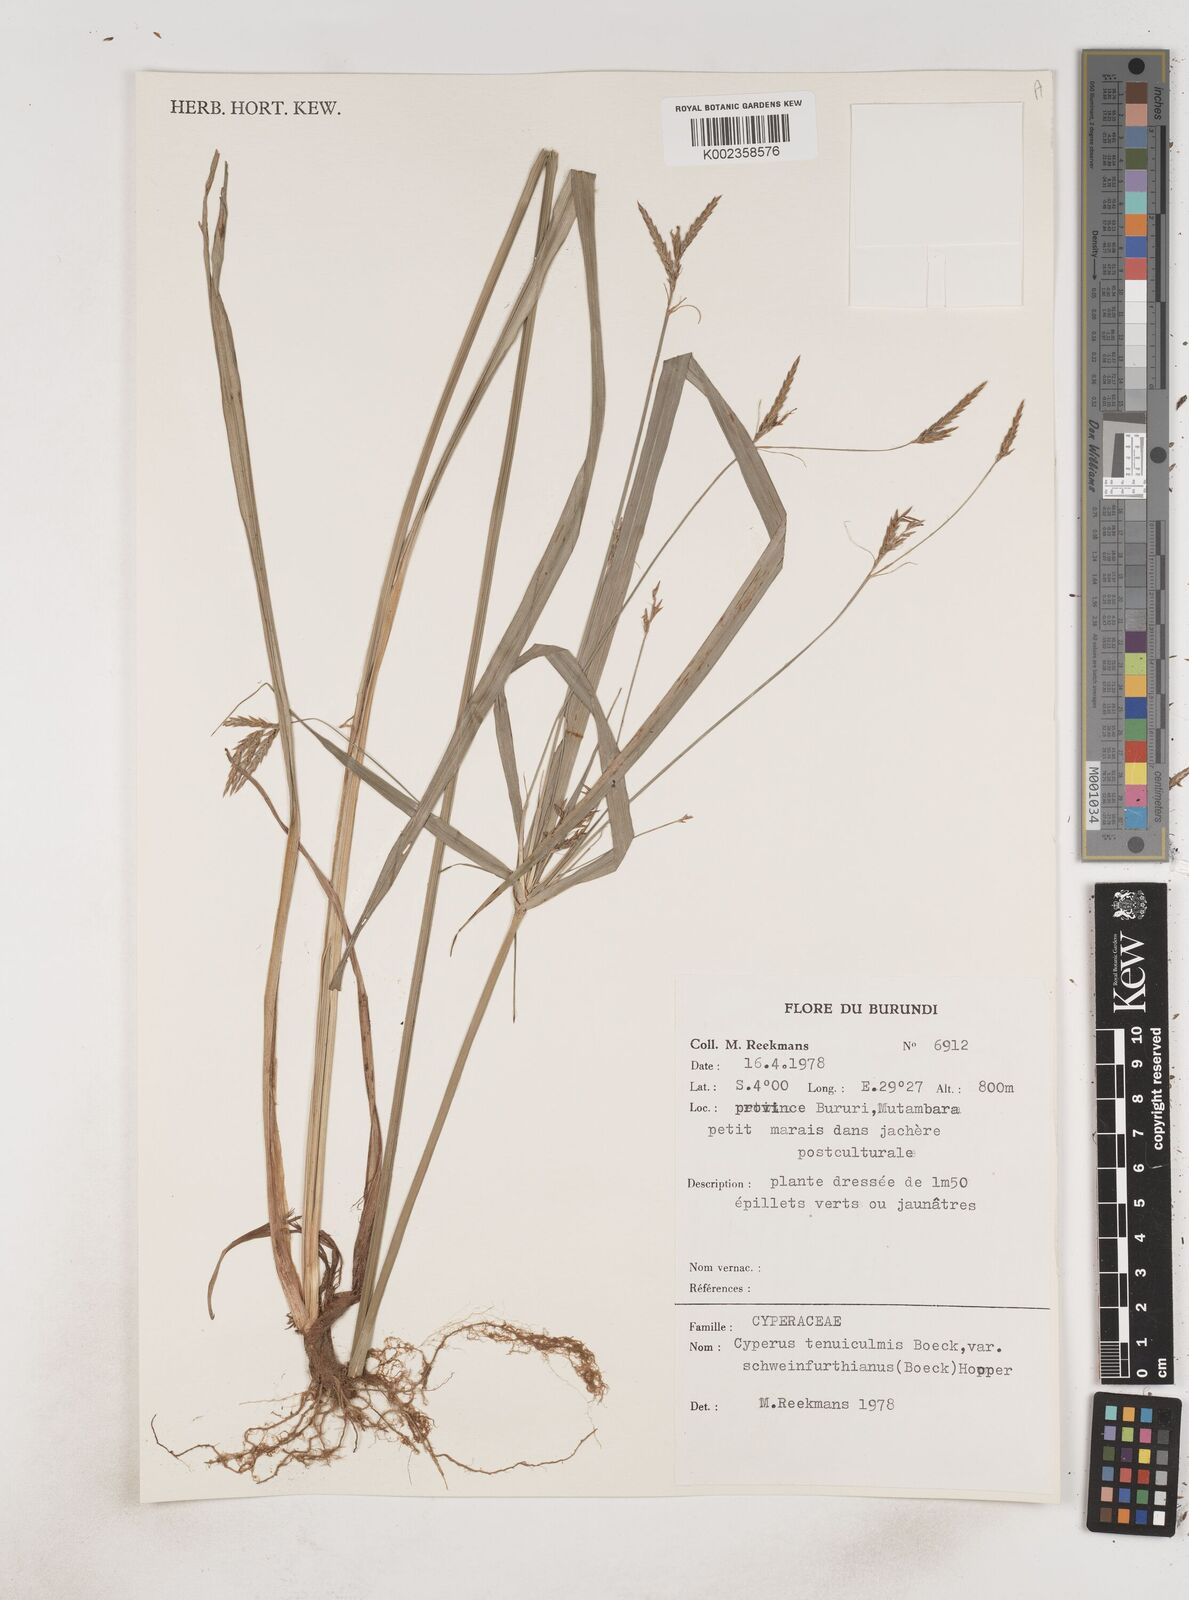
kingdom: Plantae
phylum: Tracheophyta
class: Liliopsida
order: Poales
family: Cyperaceae
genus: Cyperus
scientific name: Cyperus tenuiculmis
